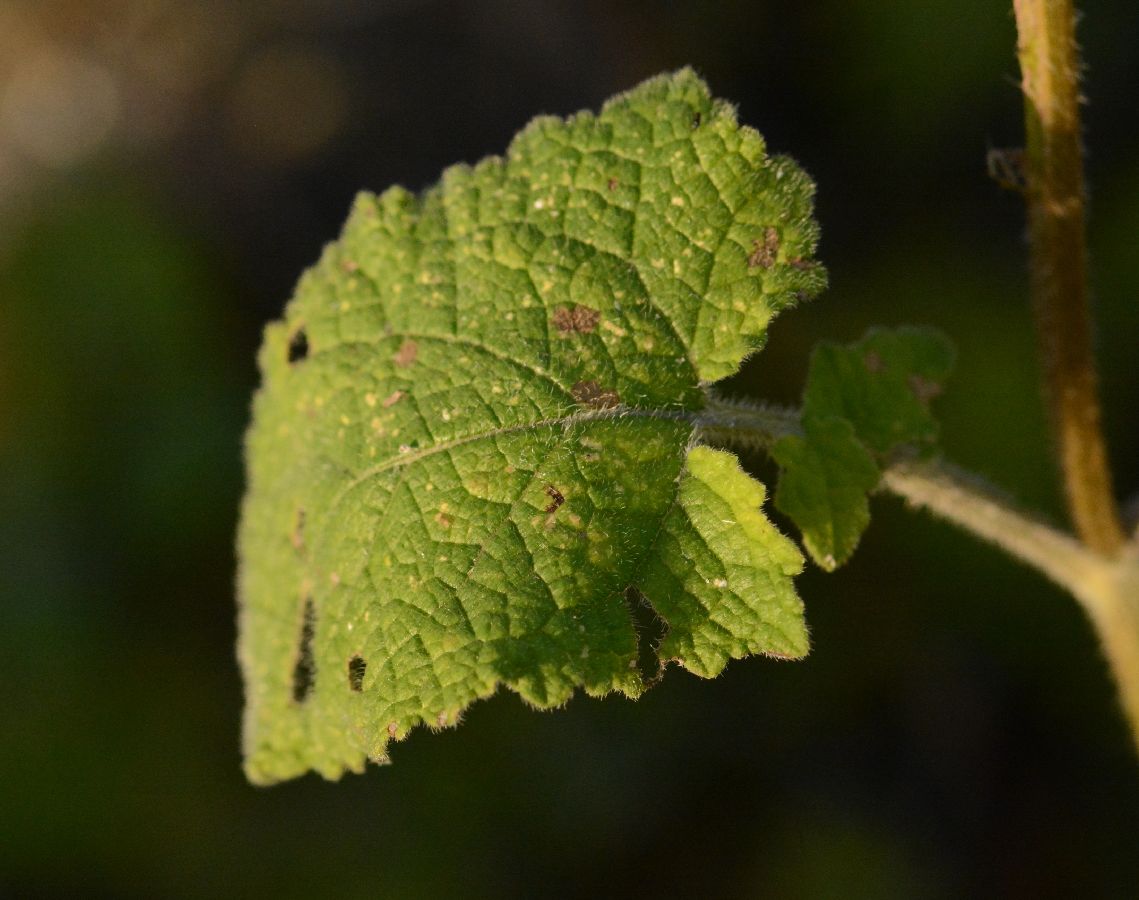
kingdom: Plantae
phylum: Tracheophyta
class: Magnoliopsida
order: Lamiales
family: Lamiaceae
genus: Salvia
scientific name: Salvia verticillata
